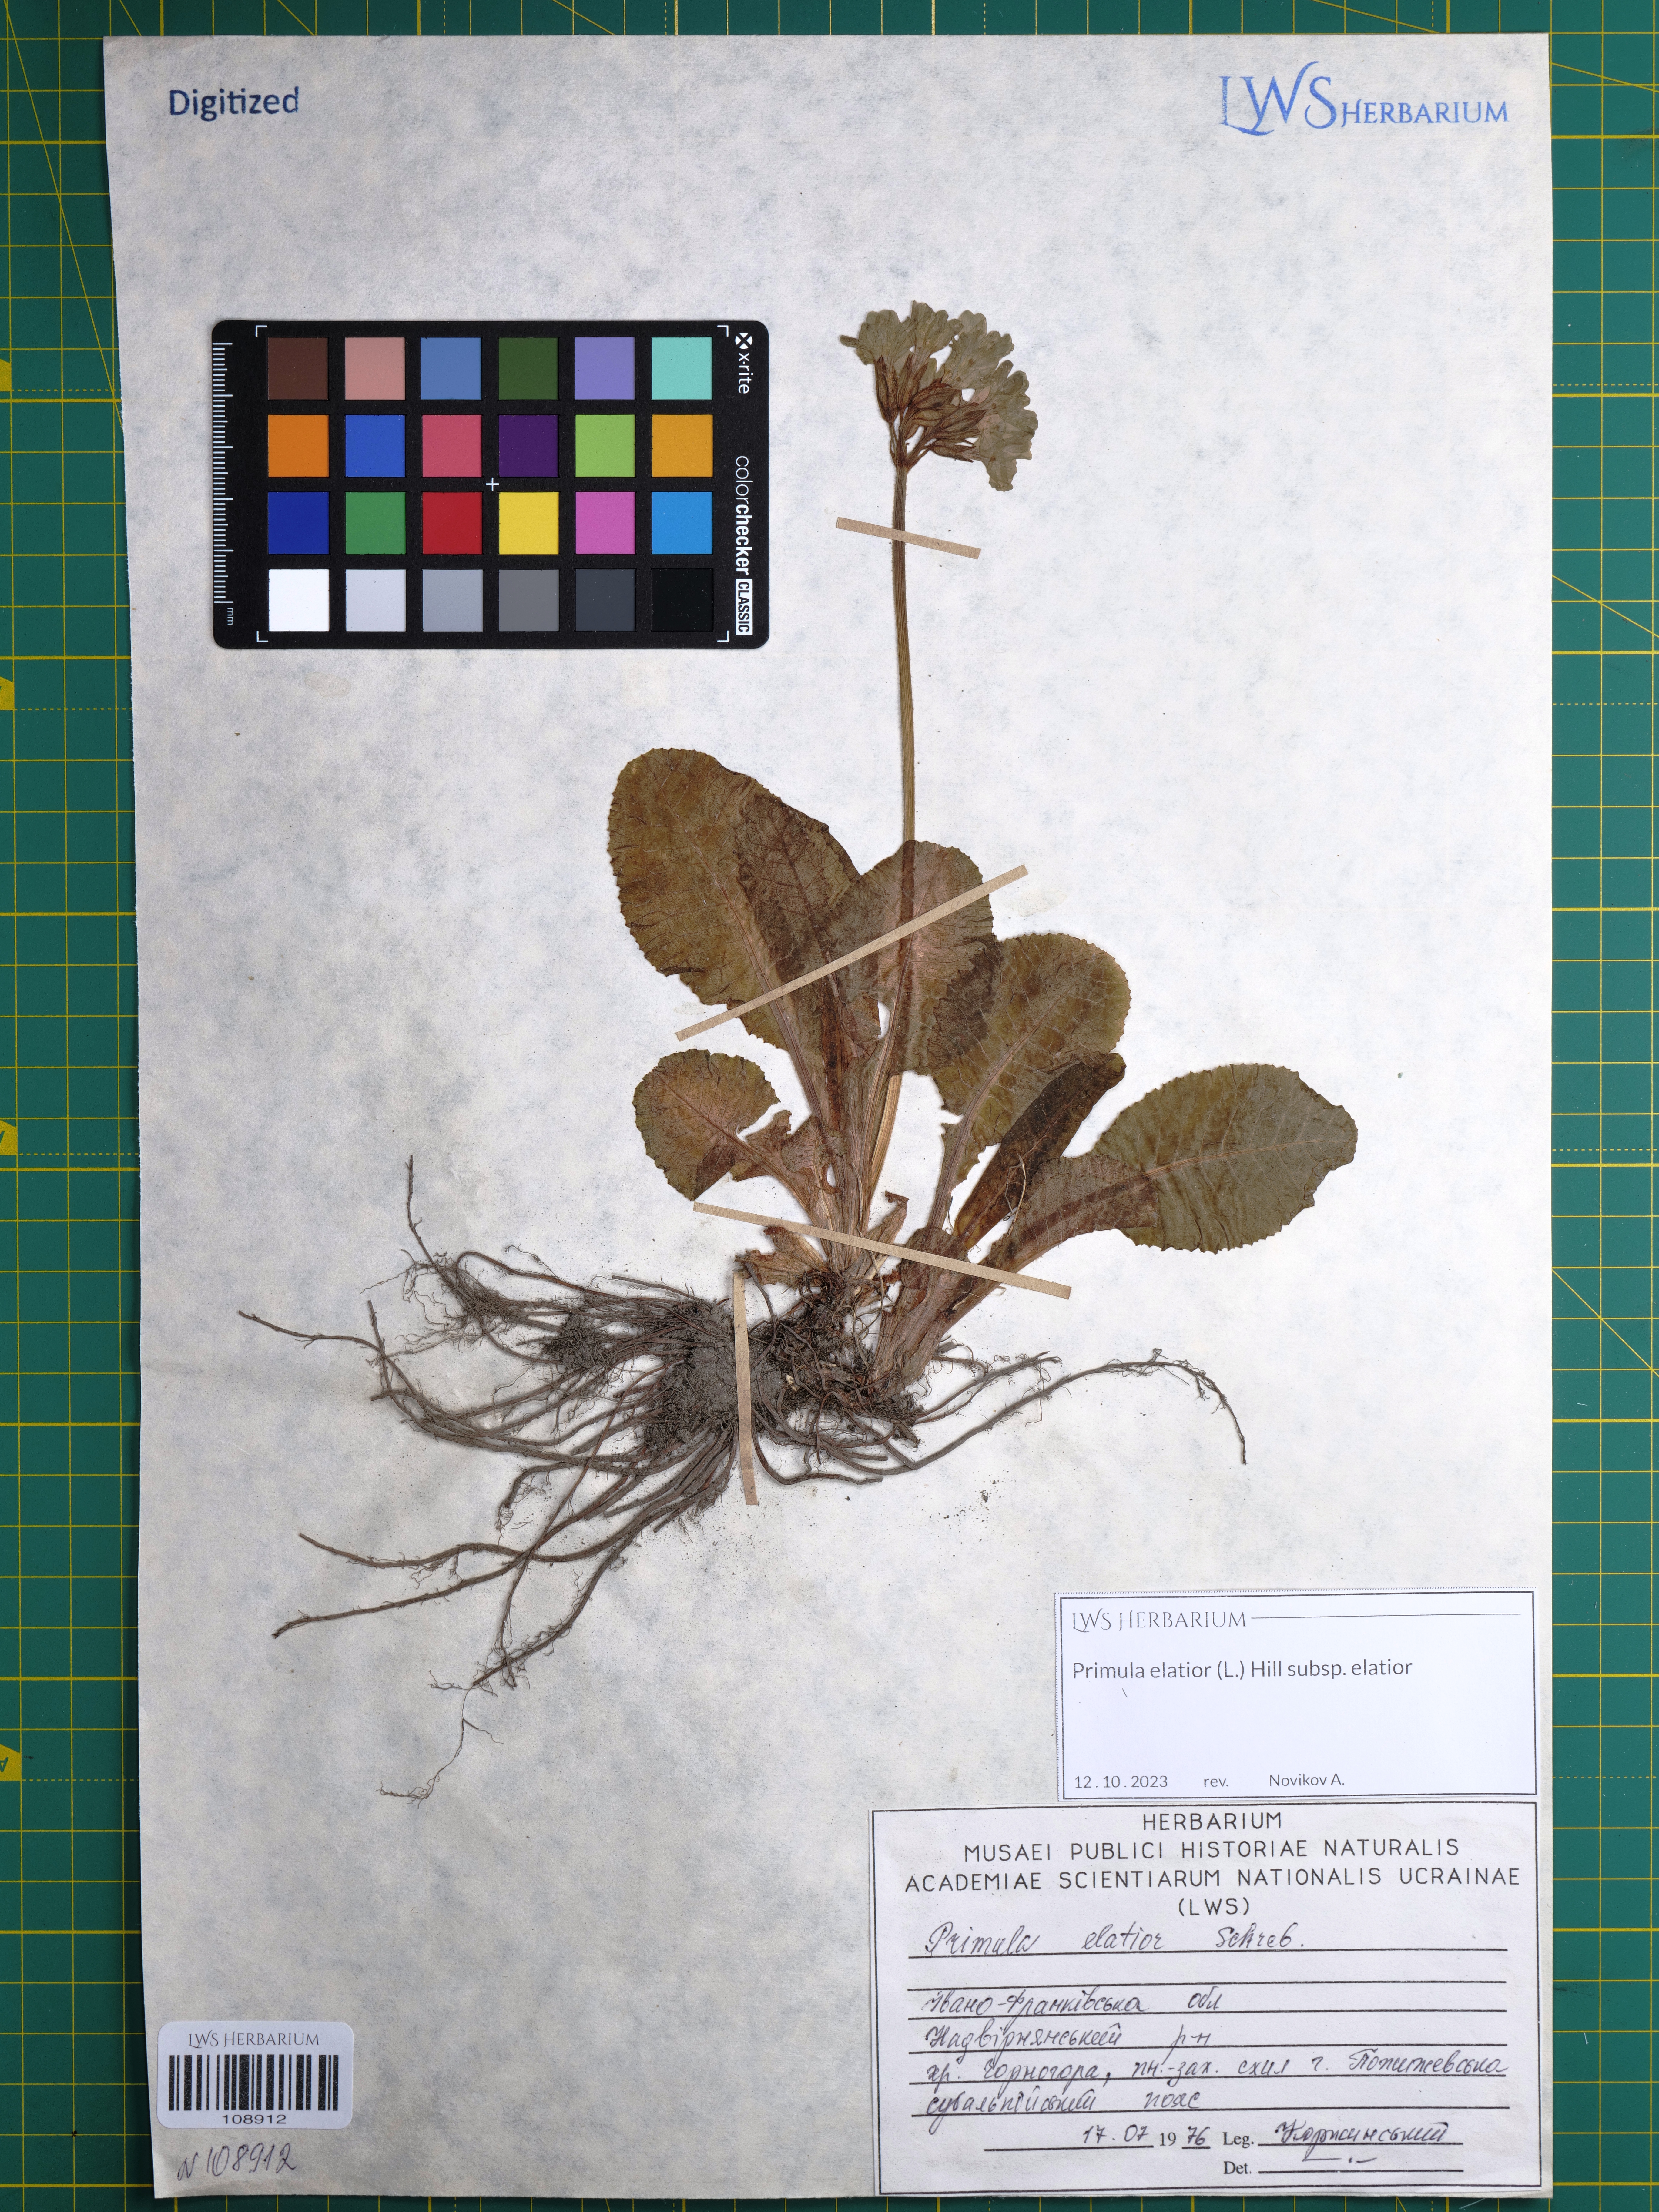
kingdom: Plantae
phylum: Tracheophyta
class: Magnoliopsida
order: Ericales
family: Primulaceae
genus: Primula
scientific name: Primula elatior
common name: Oxlip
